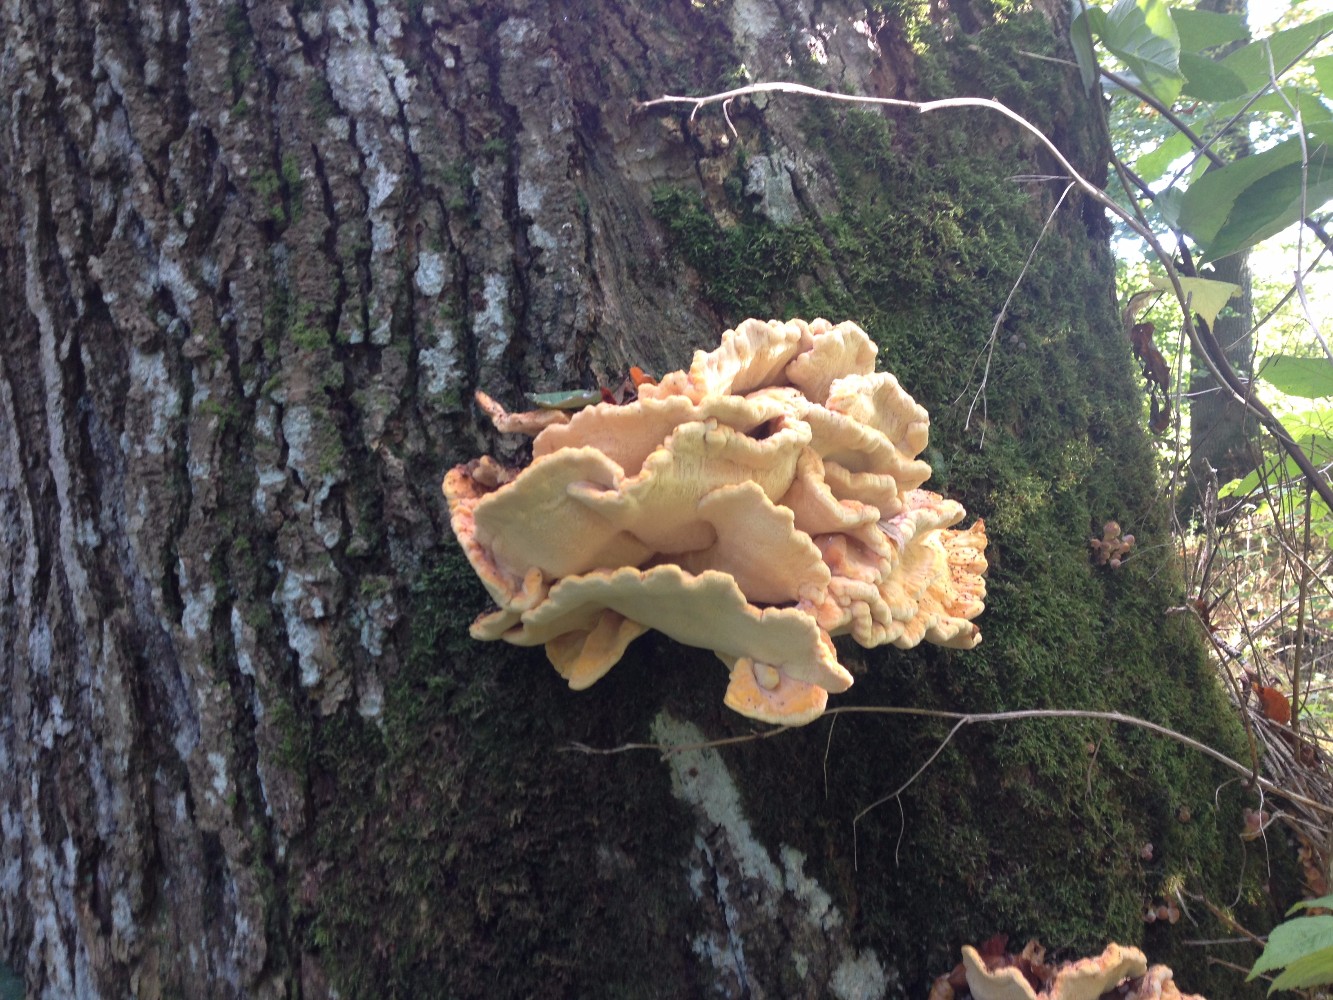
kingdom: Fungi
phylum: Basidiomycota
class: Agaricomycetes
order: Polyporales
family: Laetiporaceae
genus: Laetiporus
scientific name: Laetiporus sulphureus
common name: svovlporesvamp
